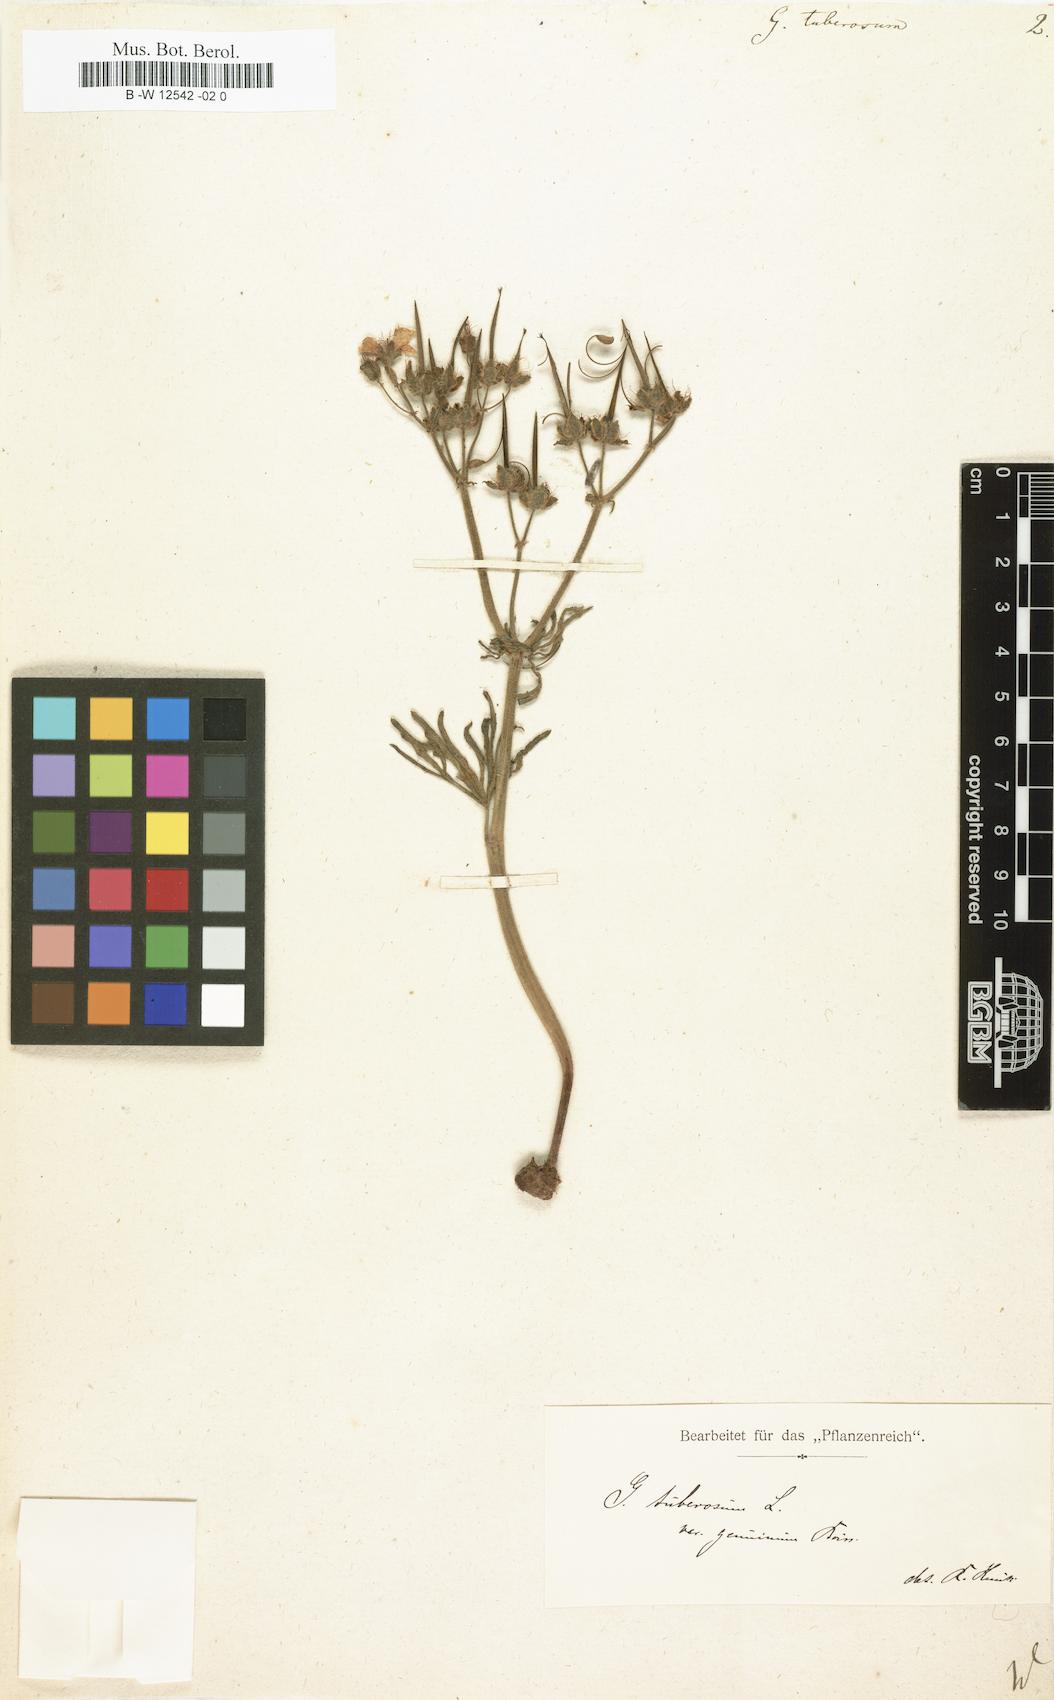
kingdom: Plantae
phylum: Tracheophyta
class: Magnoliopsida
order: Geraniales
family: Geraniaceae
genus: Geranium
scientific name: Geranium tuberosum
